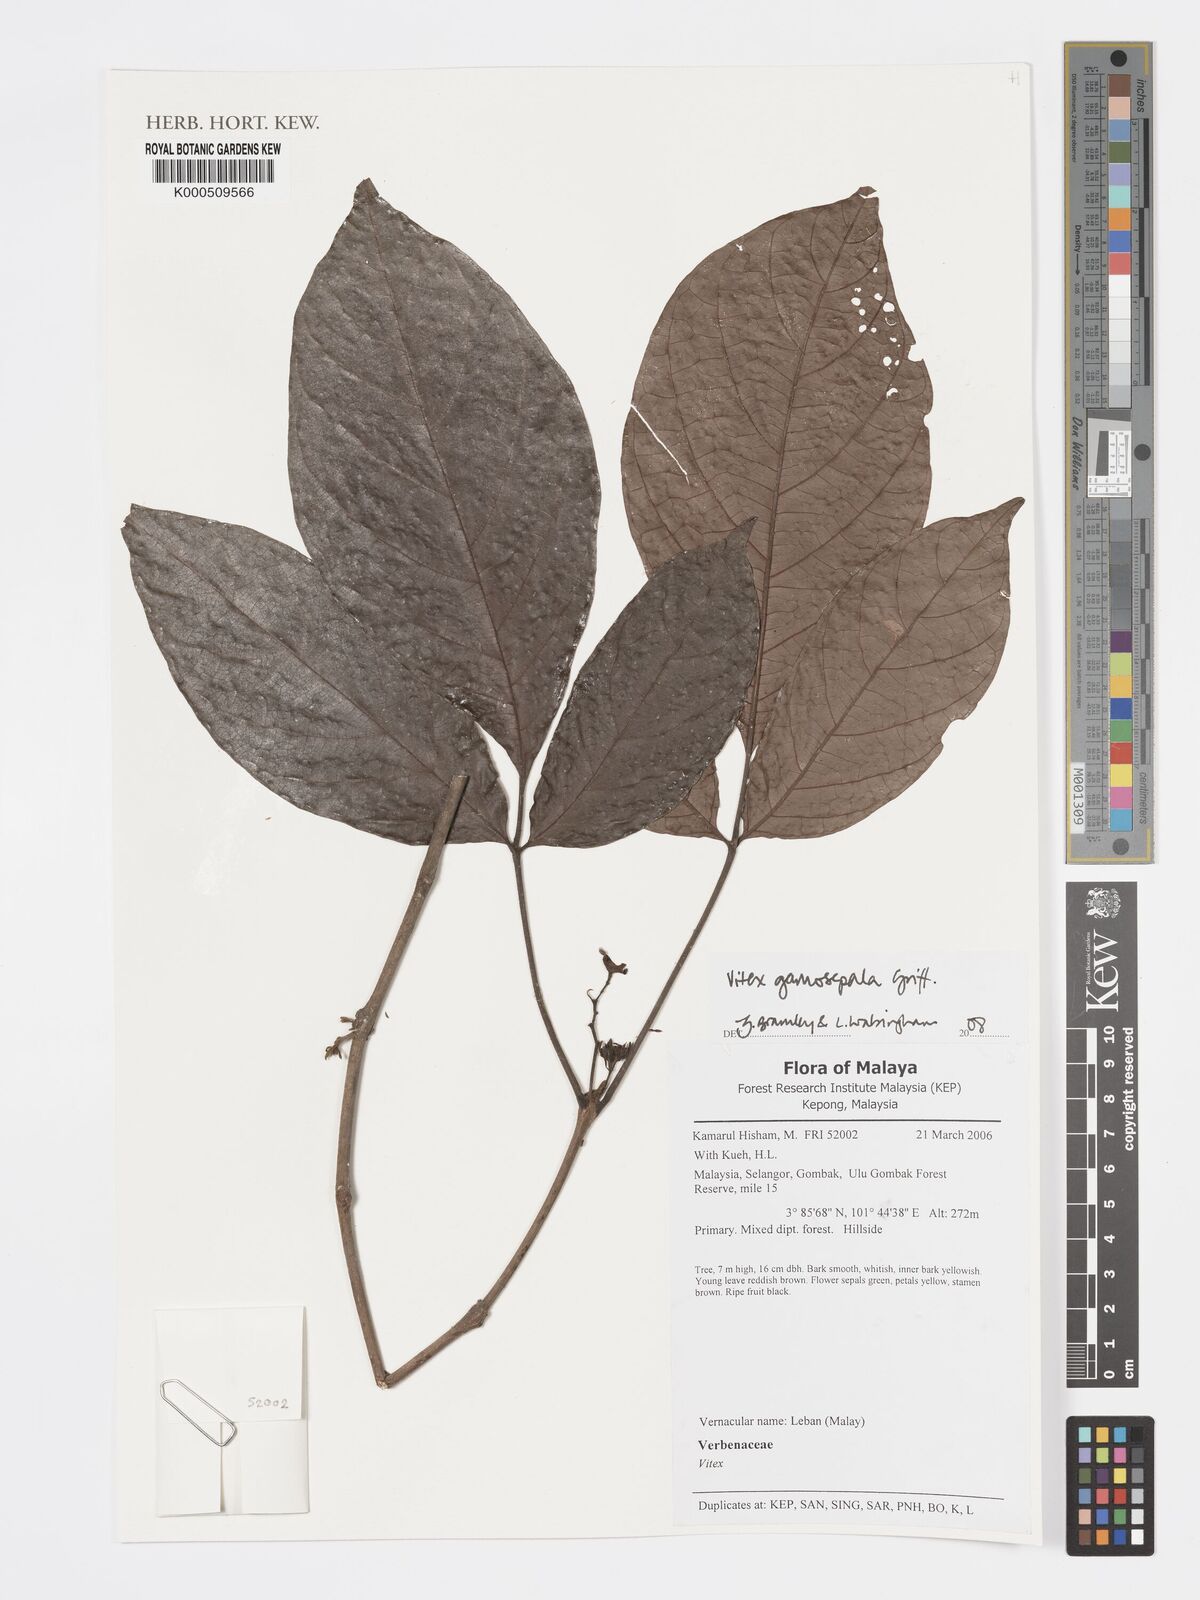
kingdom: Plantae
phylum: Tracheophyta
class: Magnoliopsida
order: Lamiales
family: Lamiaceae
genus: Vitex
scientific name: Vitex gamosepala
